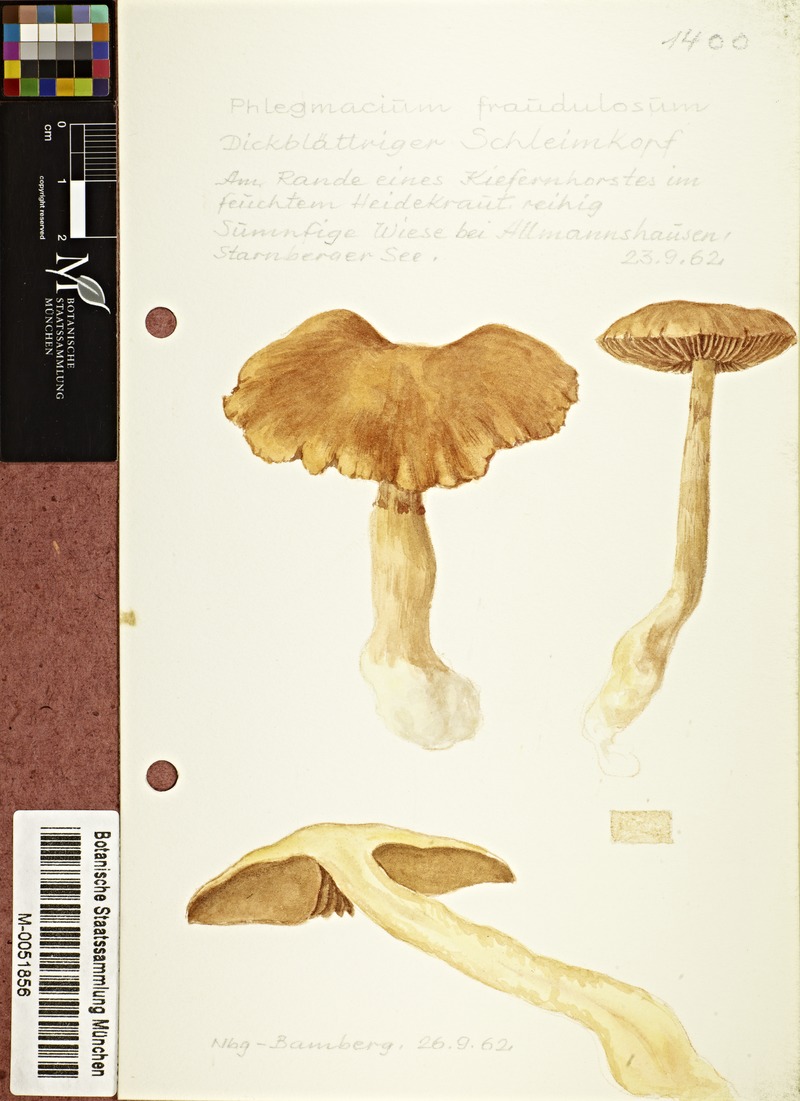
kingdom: Fungi
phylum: Basidiomycota
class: Agaricomycetes
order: Agaricales
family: Cortinariaceae
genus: Cortinarius
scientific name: Cortinarius fraudulosus
